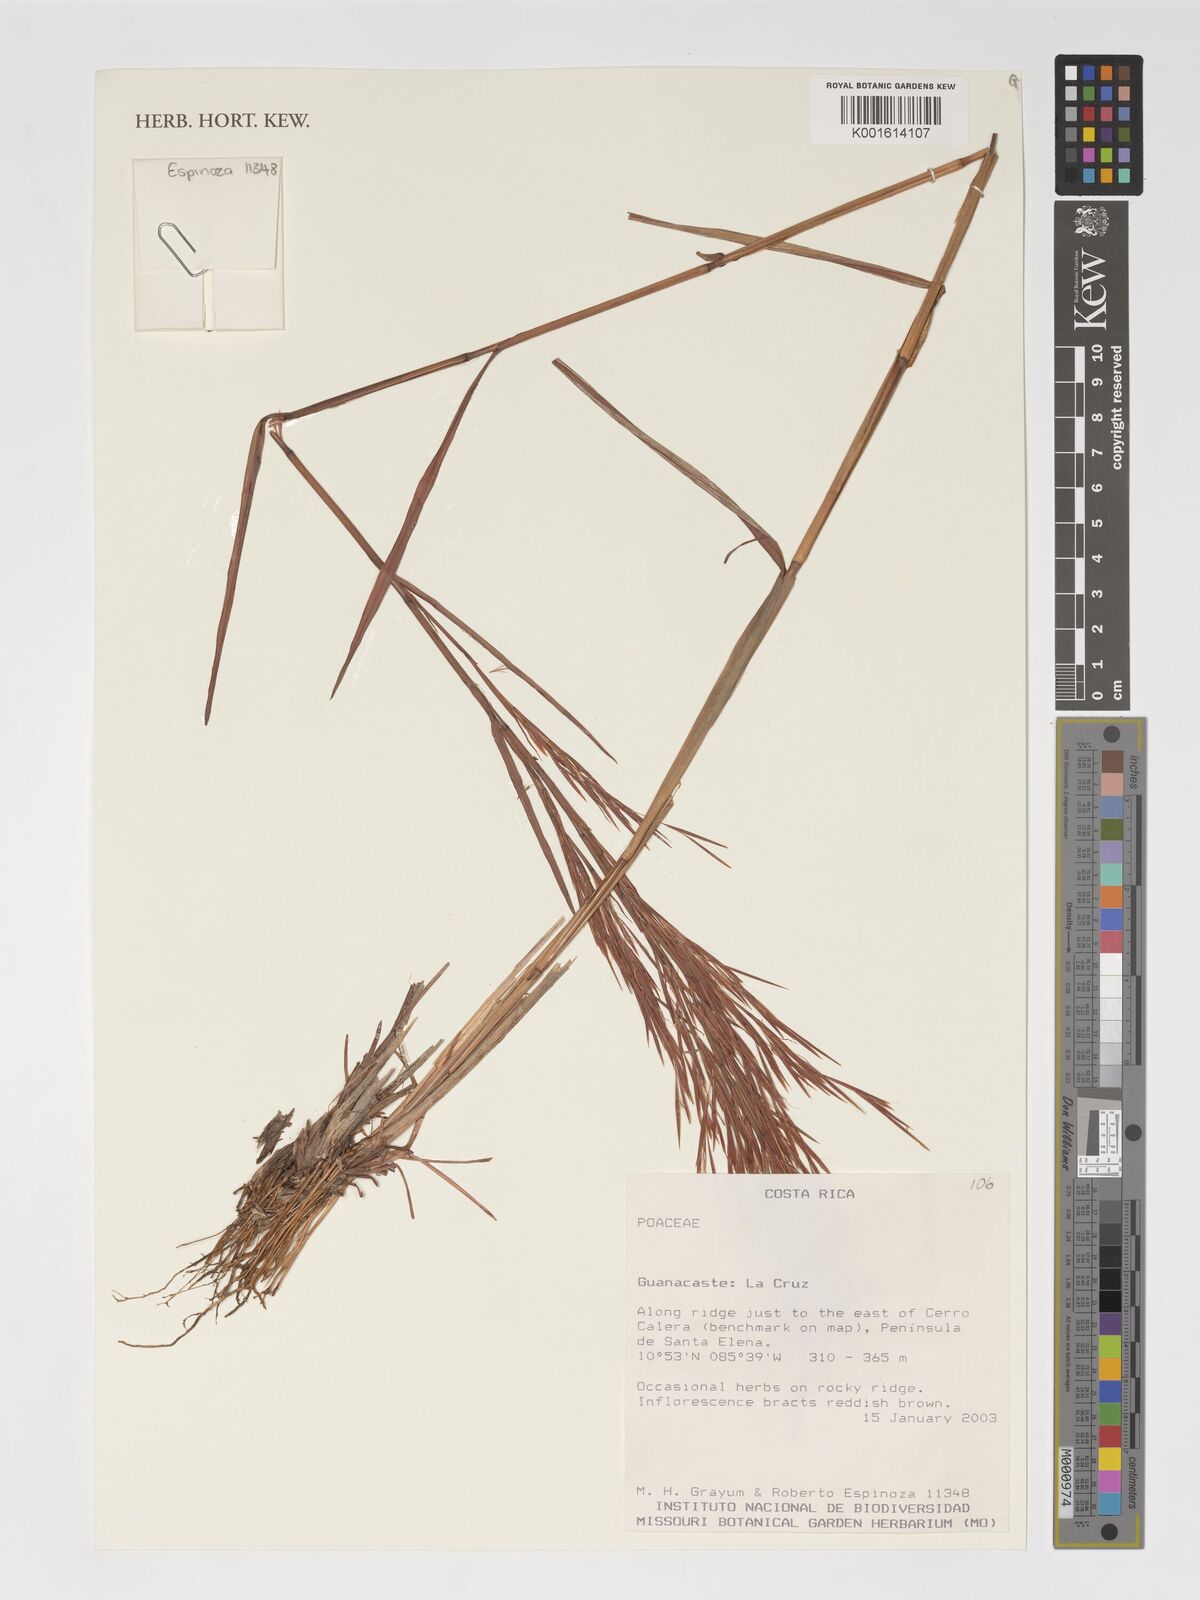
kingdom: Plantae
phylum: Tracheophyta
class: Liliopsida
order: Poales
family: Poaceae
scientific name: Poaceae
